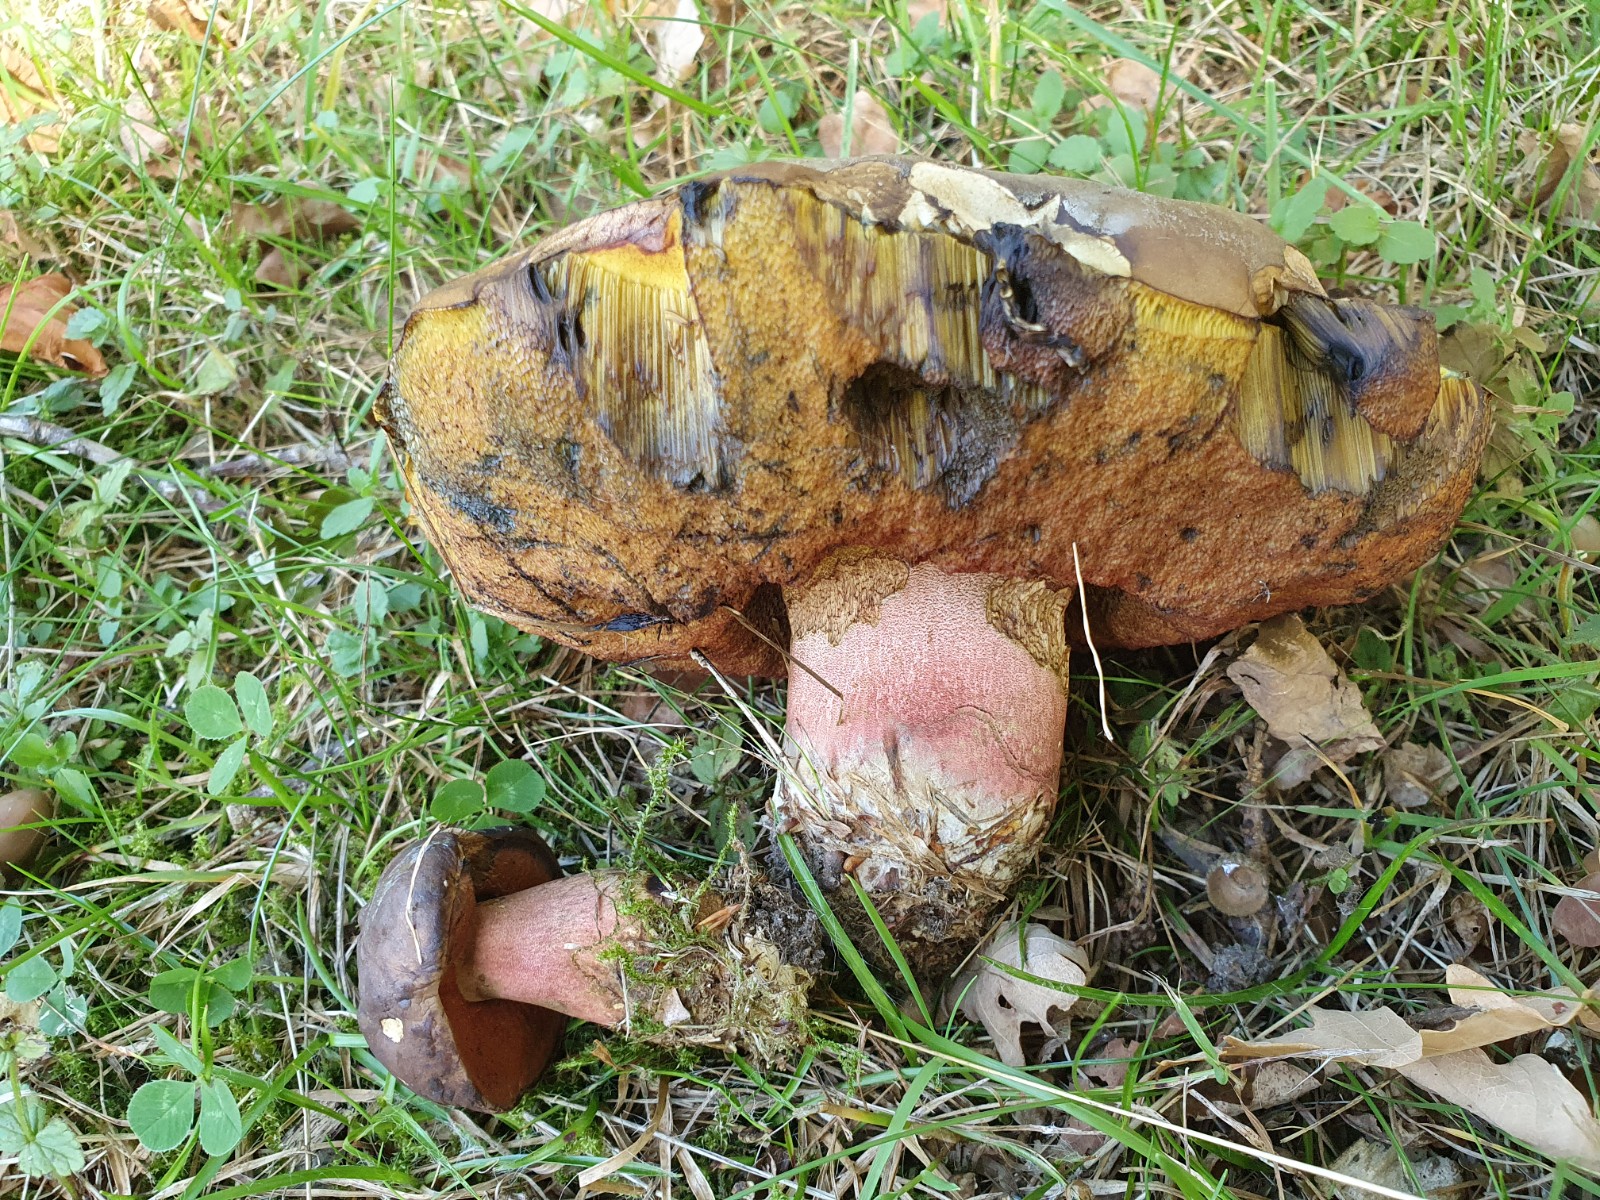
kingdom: Fungi
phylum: Basidiomycota
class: Agaricomycetes
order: Boletales
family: Boletaceae
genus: Neoboletus
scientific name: Neoboletus erythropus
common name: punktstokket indigorørhat
